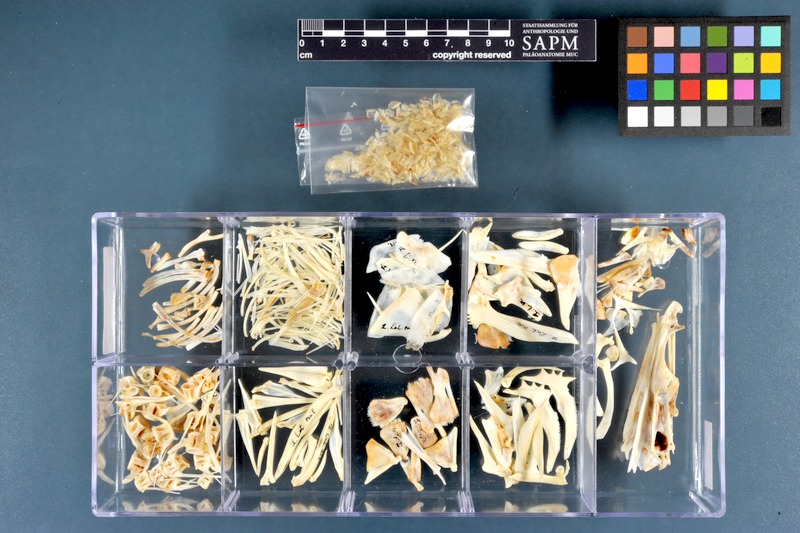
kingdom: Animalia
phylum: Chordata
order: Perciformes
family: Latidae
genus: Lates
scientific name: Lates niloticus
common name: Nile perch
